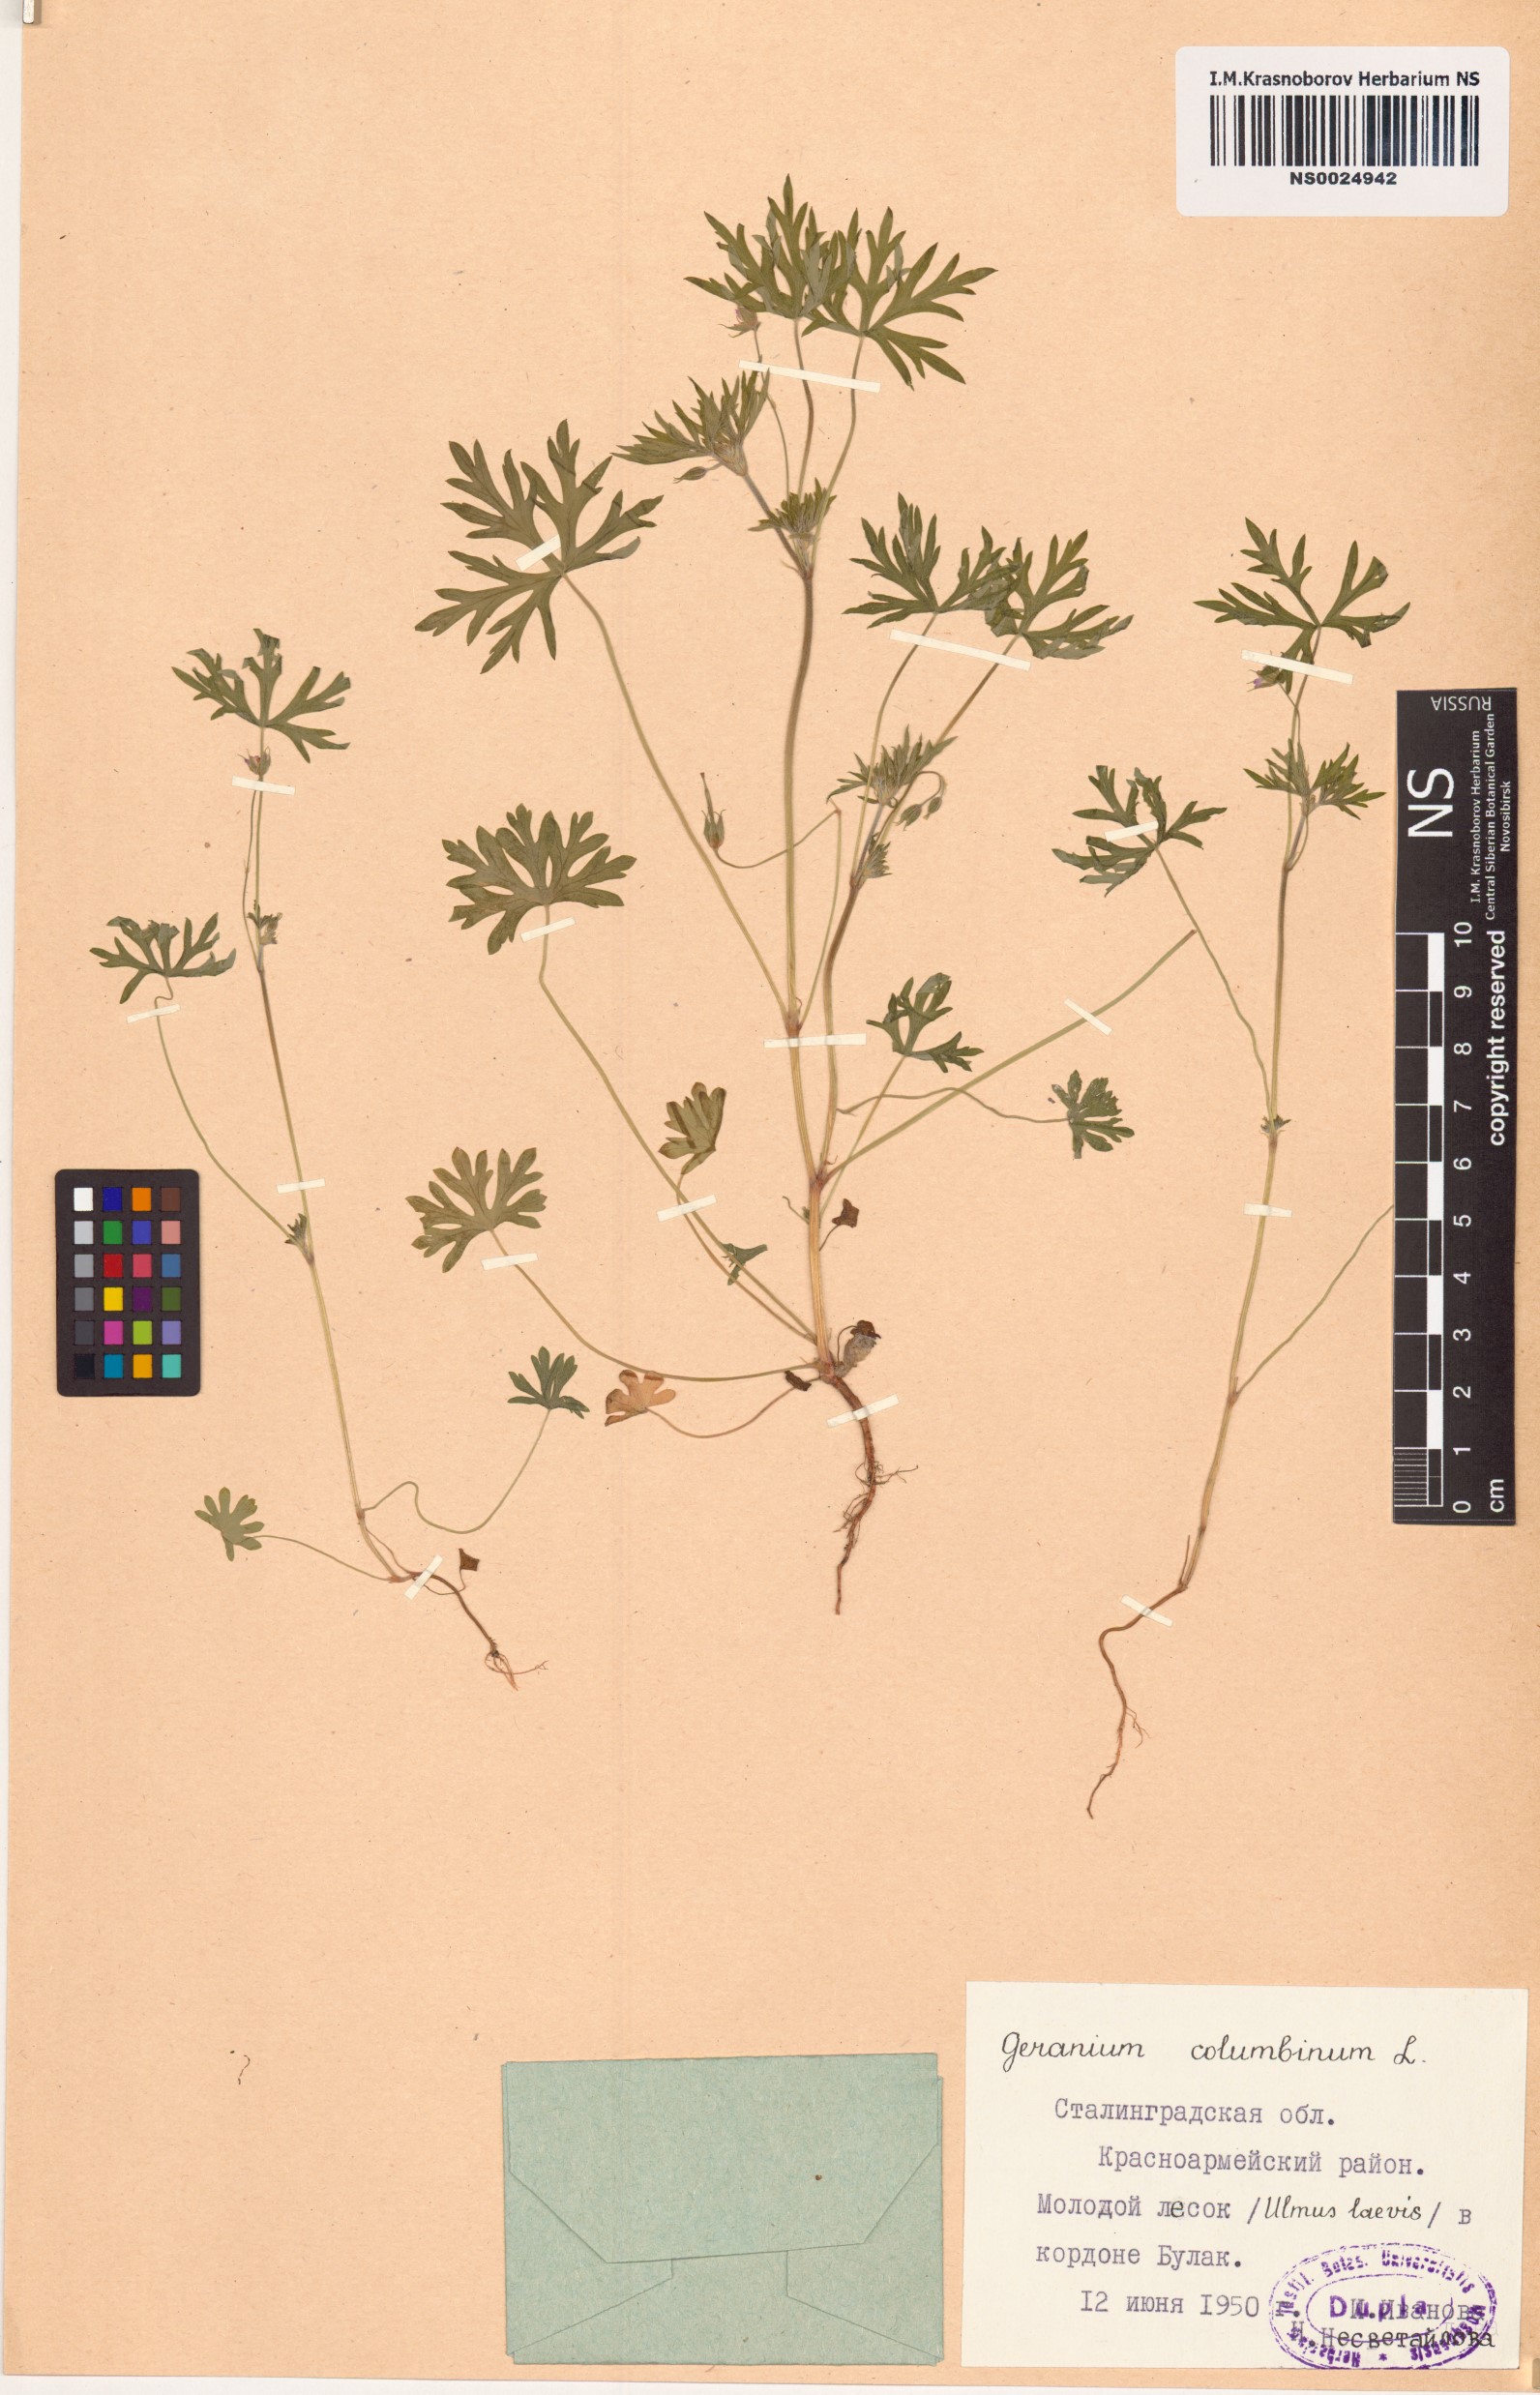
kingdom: Plantae
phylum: Tracheophyta
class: Magnoliopsida
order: Geraniales
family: Geraniaceae
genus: Geranium
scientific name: Geranium columbinum
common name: Long-stalked crane's-bill
